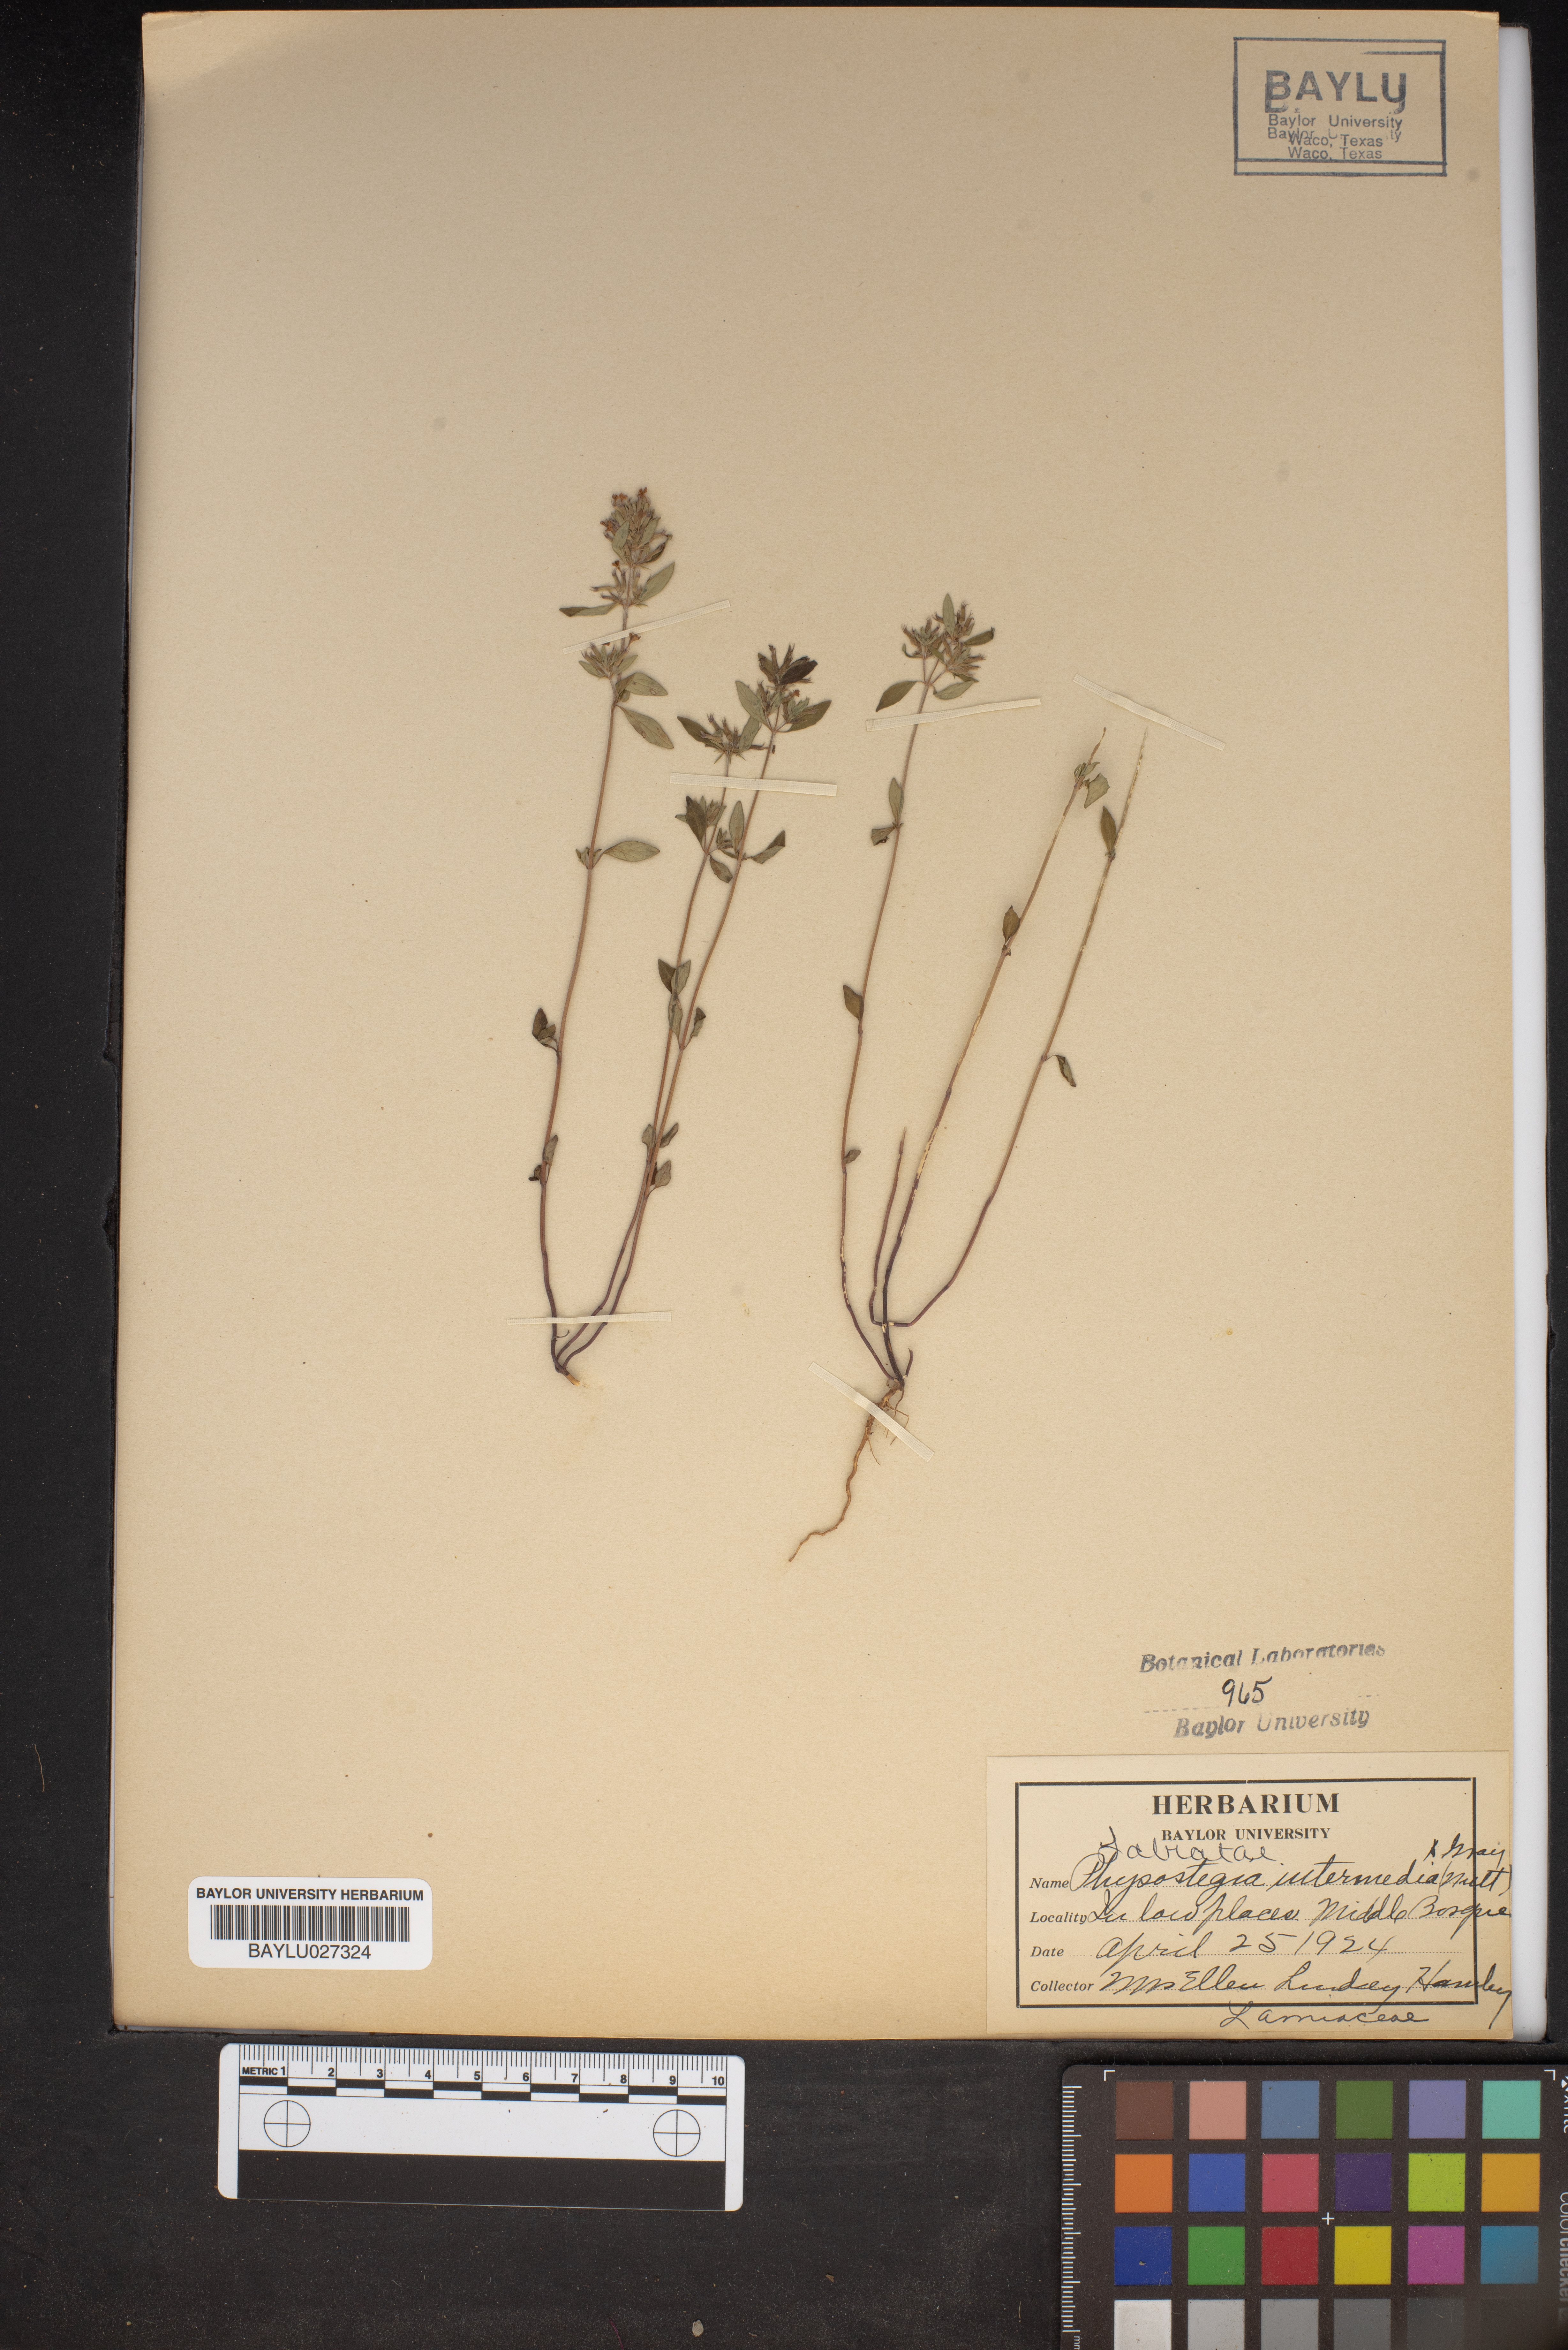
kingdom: Plantae
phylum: Tracheophyta
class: Magnoliopsida
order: Lamiales
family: Lamiaceae
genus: Physostegia
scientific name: Physostegia intermedia
